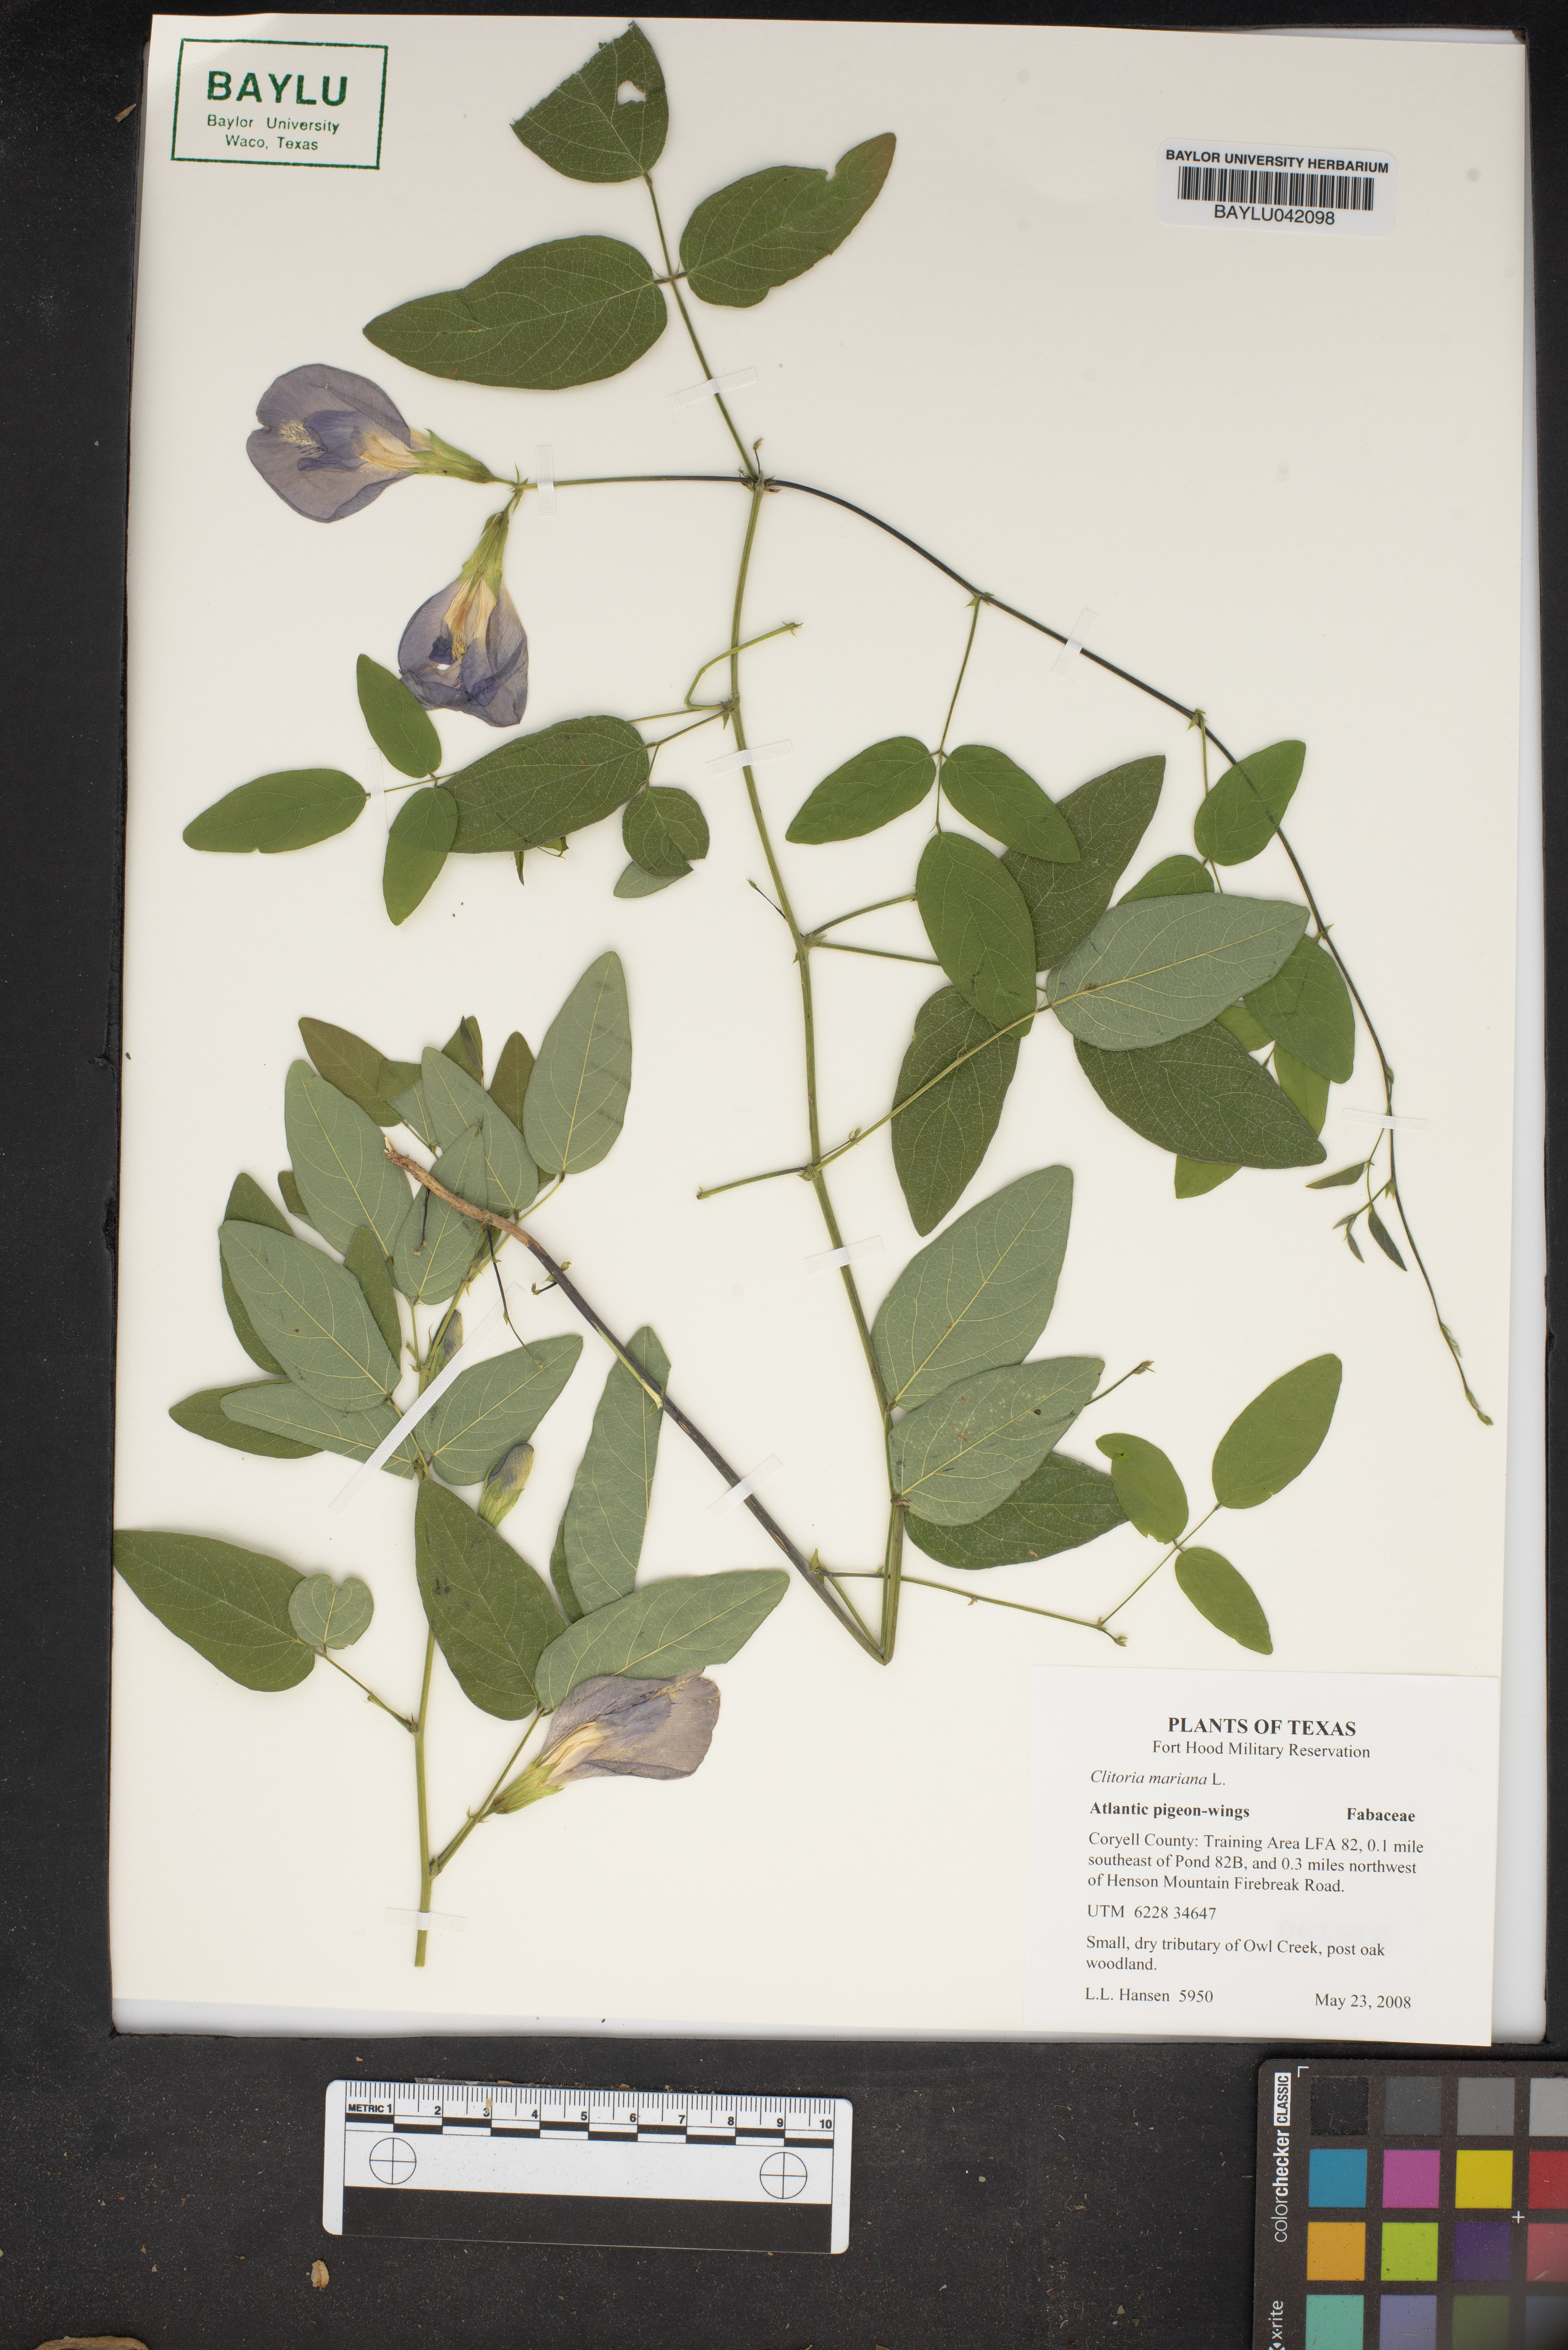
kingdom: Plantae
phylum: Tracheophyta
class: Magnoliopsida
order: Fabales
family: Fabaceae
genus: Clitoria
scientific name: Clitoria mariana
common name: Butterfly-pea
